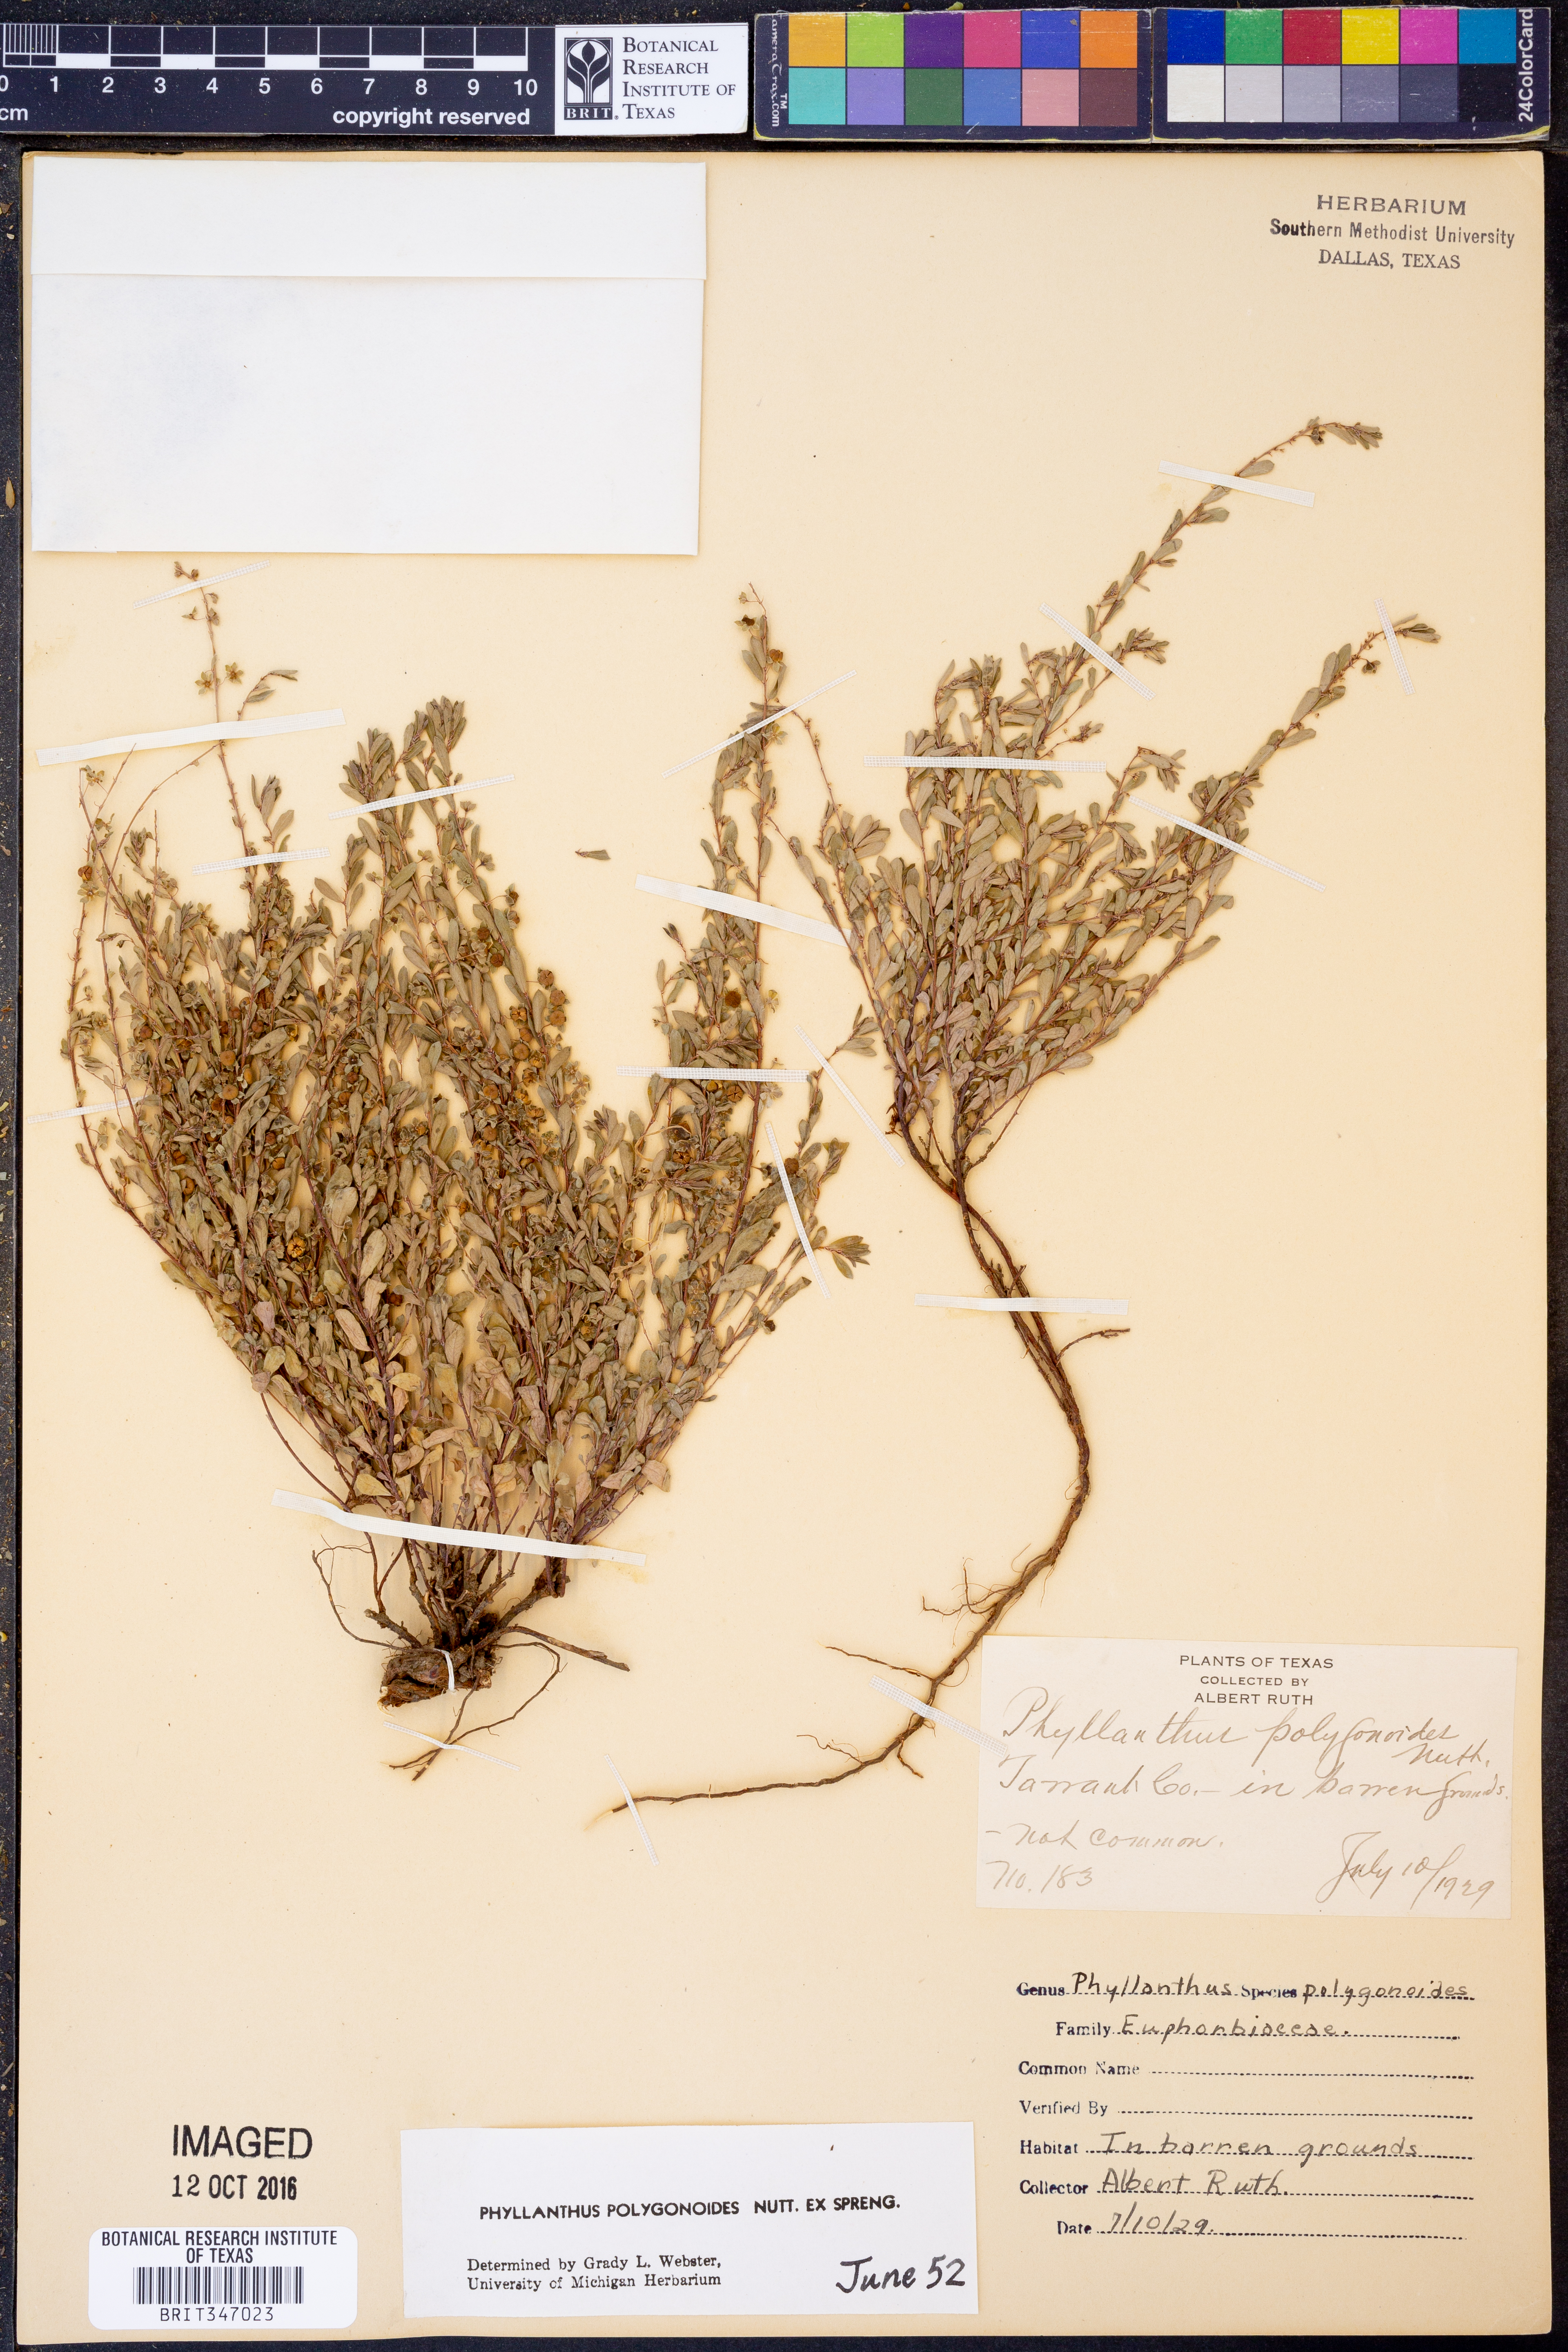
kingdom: Plantae
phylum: Tracheophyta
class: Magnoliopsida
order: Malpighiales
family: Phyllanthaceae
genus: Phyllanthus
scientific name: Phyllanthus polygonoides
